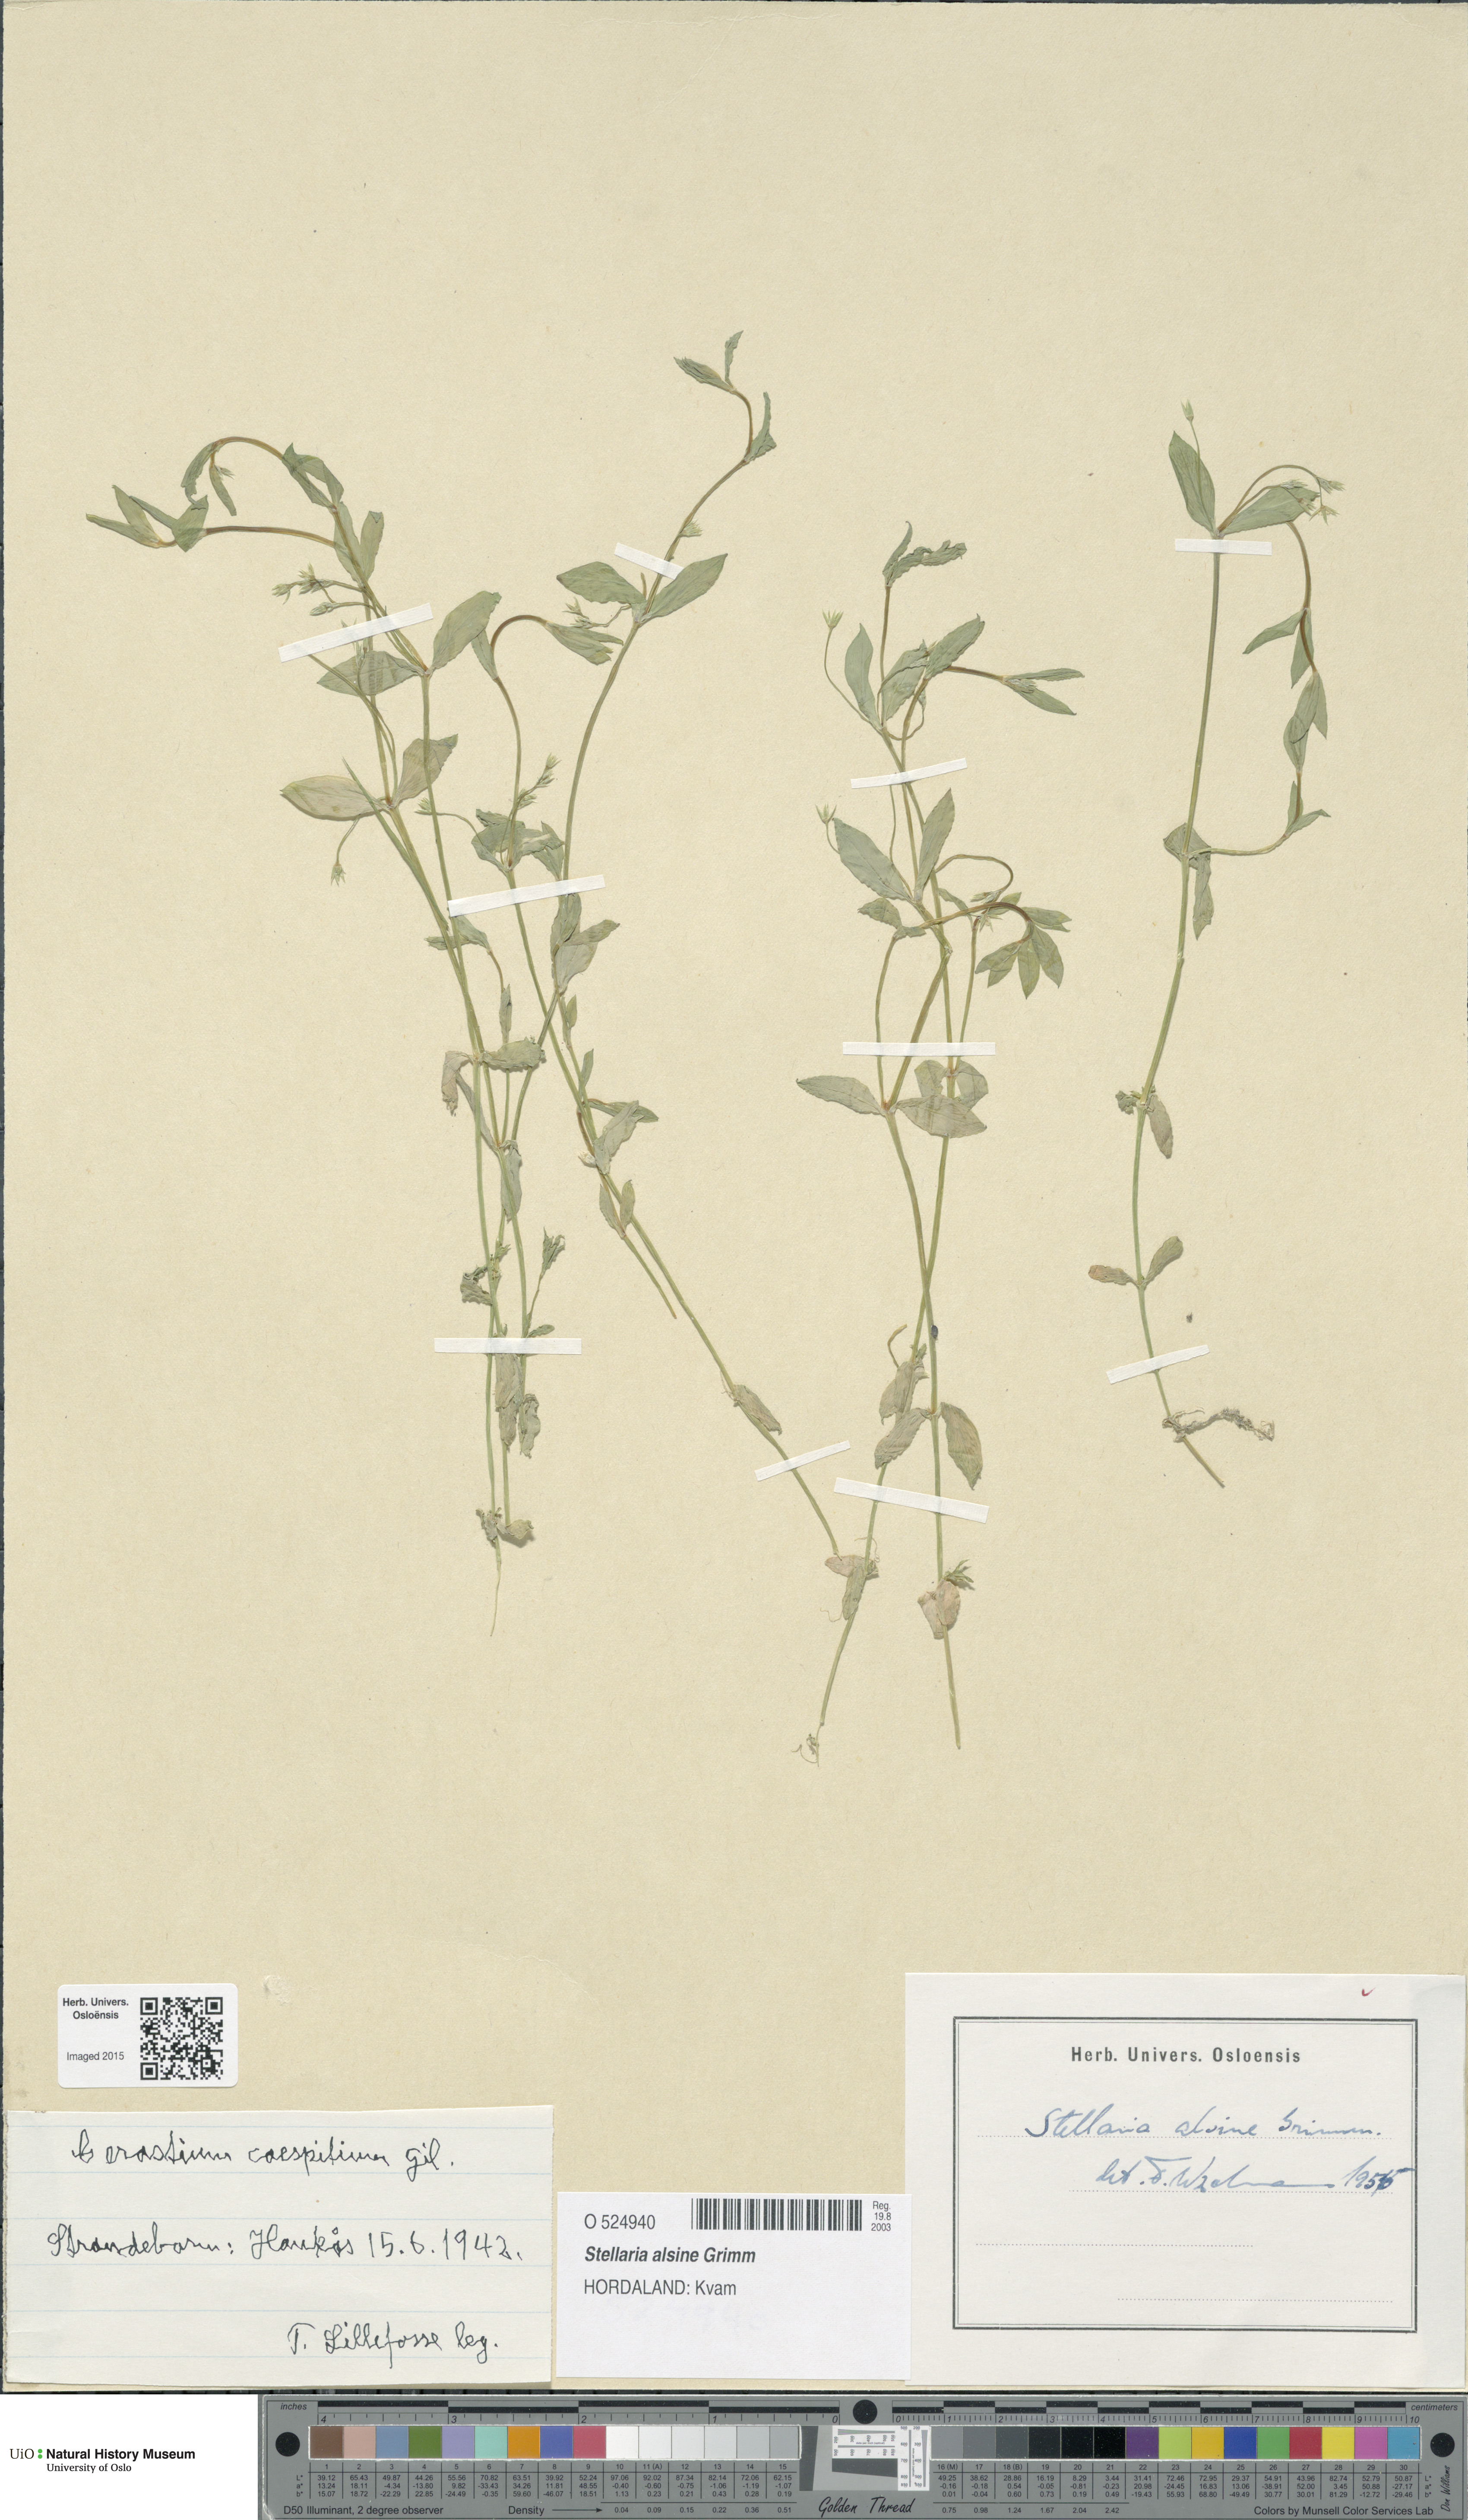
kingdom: Plantae
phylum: Tracheophyta
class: Magnoliopsida
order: Caryophyllales
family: Caryophyllaceae
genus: Stellaria
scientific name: Stellaria alsine
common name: Bog stitchwort
